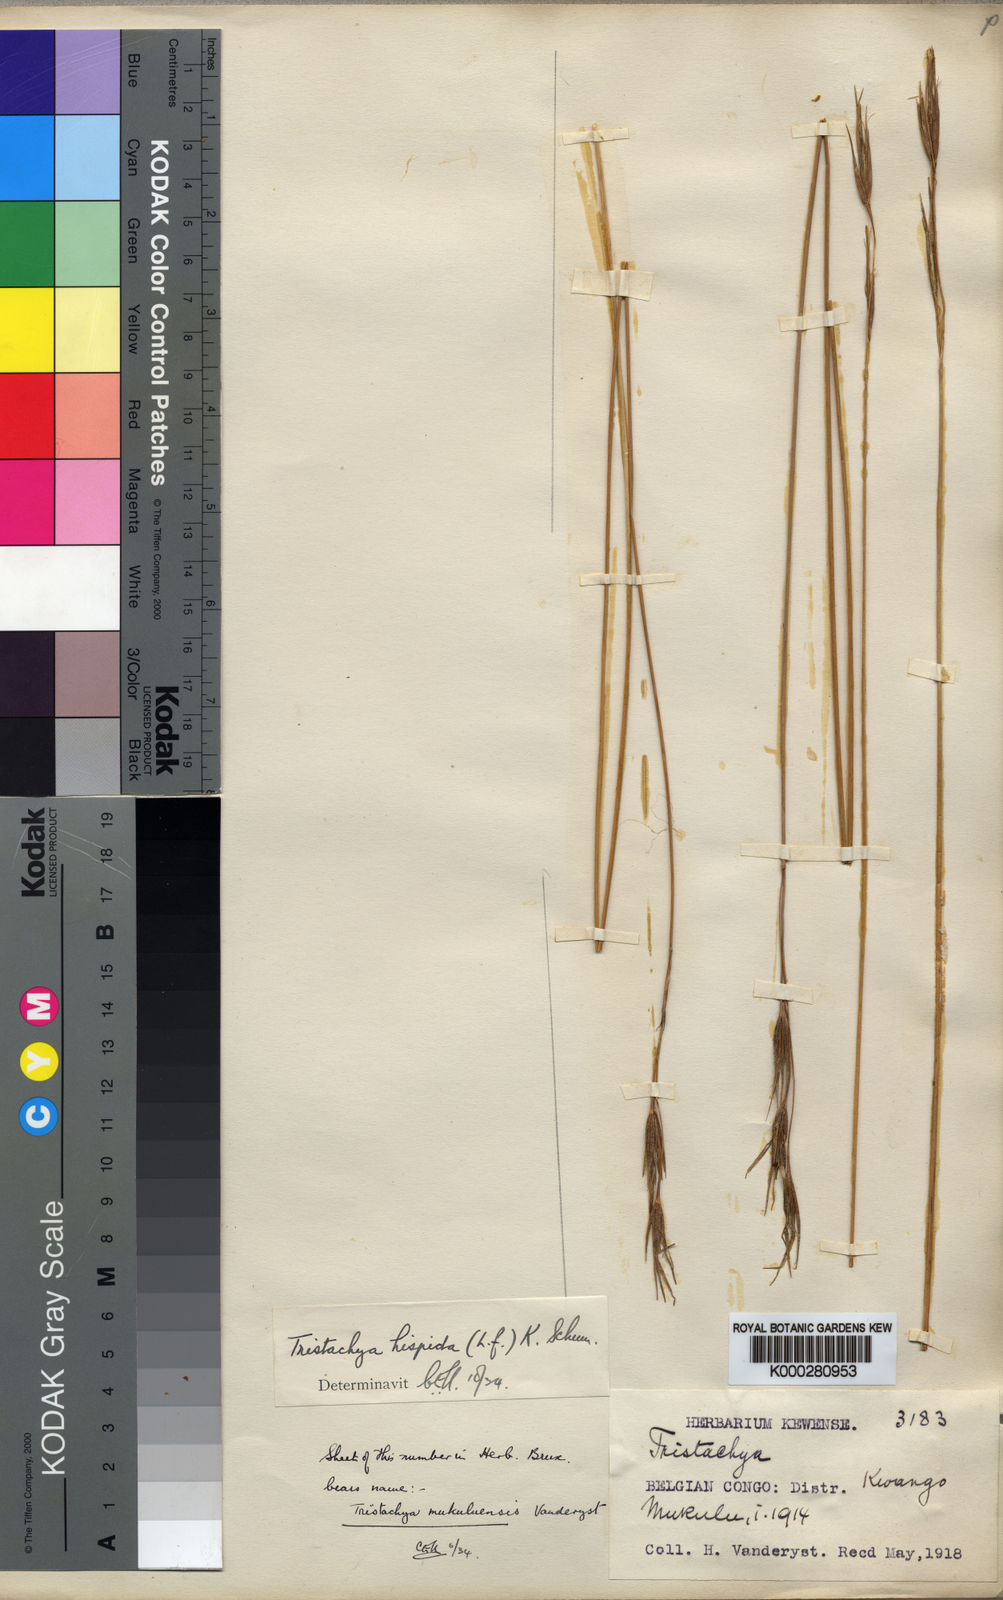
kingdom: Plantae
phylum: Tracheophyta
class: Liliopsida
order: Poales
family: Poaceae
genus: Tristachya
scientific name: Tristachya leucothrix
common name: Trident grass
